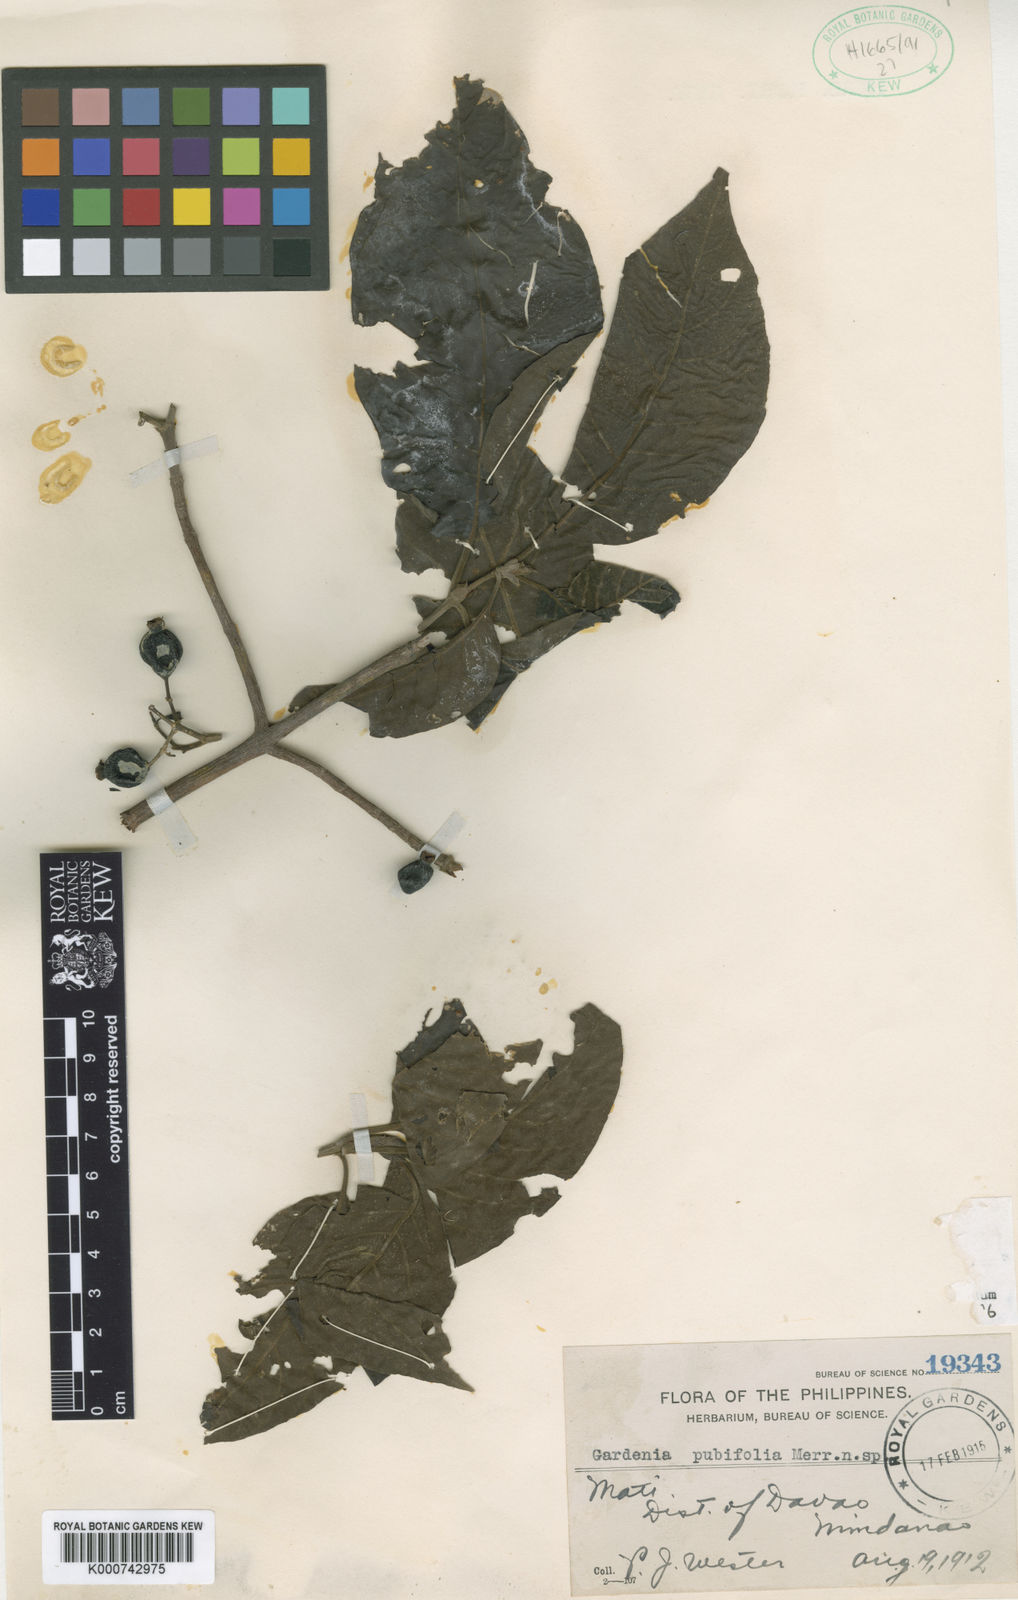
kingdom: Plantae
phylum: Tracheophyta
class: Magnoliopsida
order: Gentianales
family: Rubiaceae
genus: Randia
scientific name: Randia pubifolia
